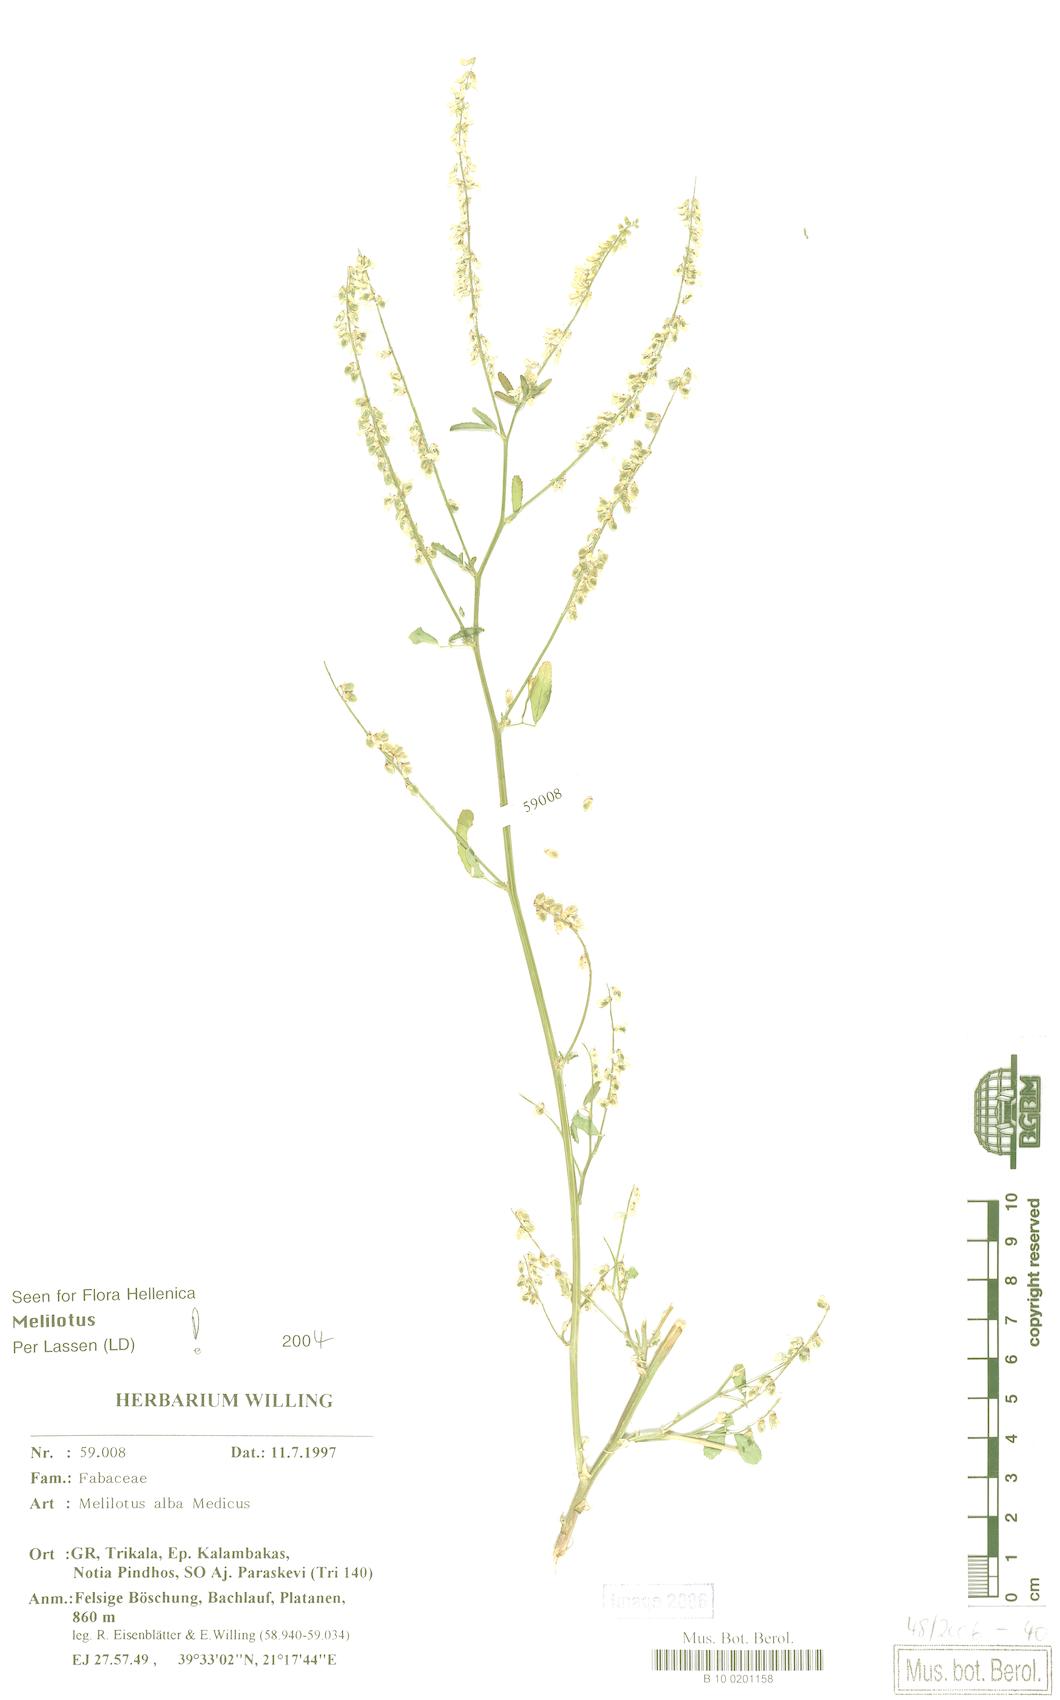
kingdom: Plantae
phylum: Tracheophyta
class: Magnoliopsida
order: Fabales
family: Fabaceae
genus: Melilotus
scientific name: Melilotus albus
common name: White melilot
